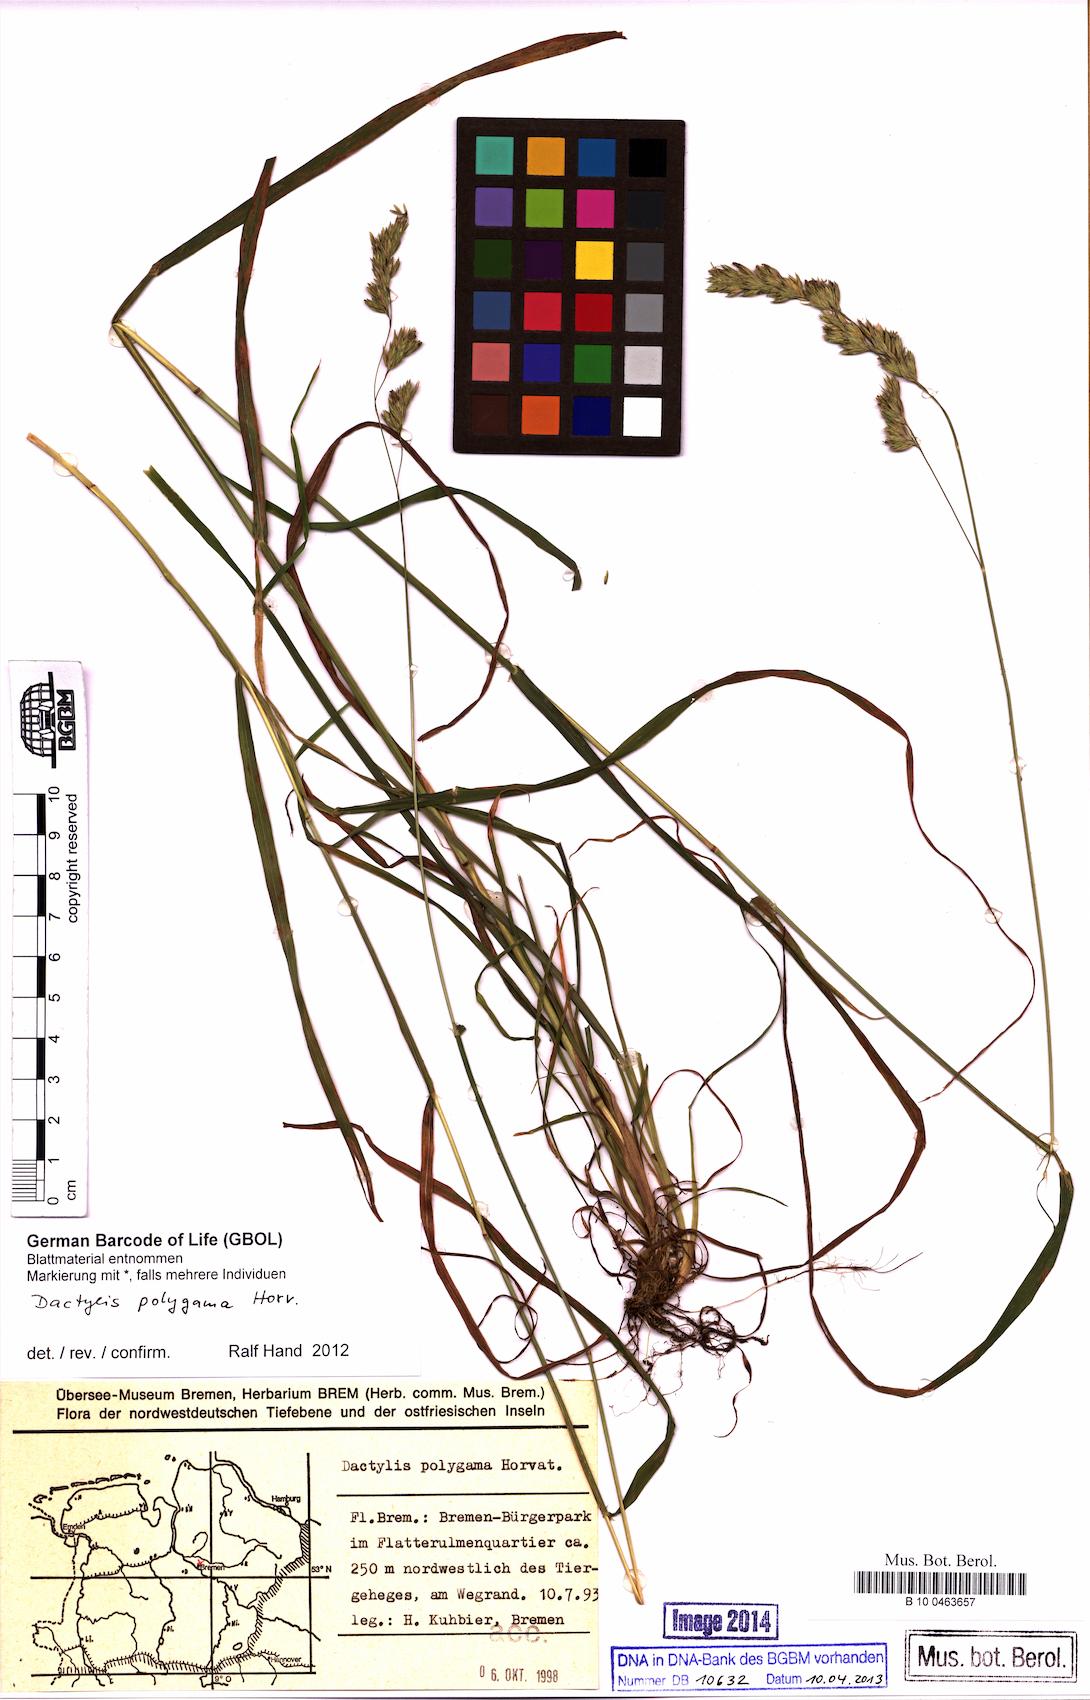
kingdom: Plantae
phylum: Tracheophyta
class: Liliopsida
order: Poales
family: Poaceae
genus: Dactylis
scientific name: Dactylis glomerata
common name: Orchardgrass
